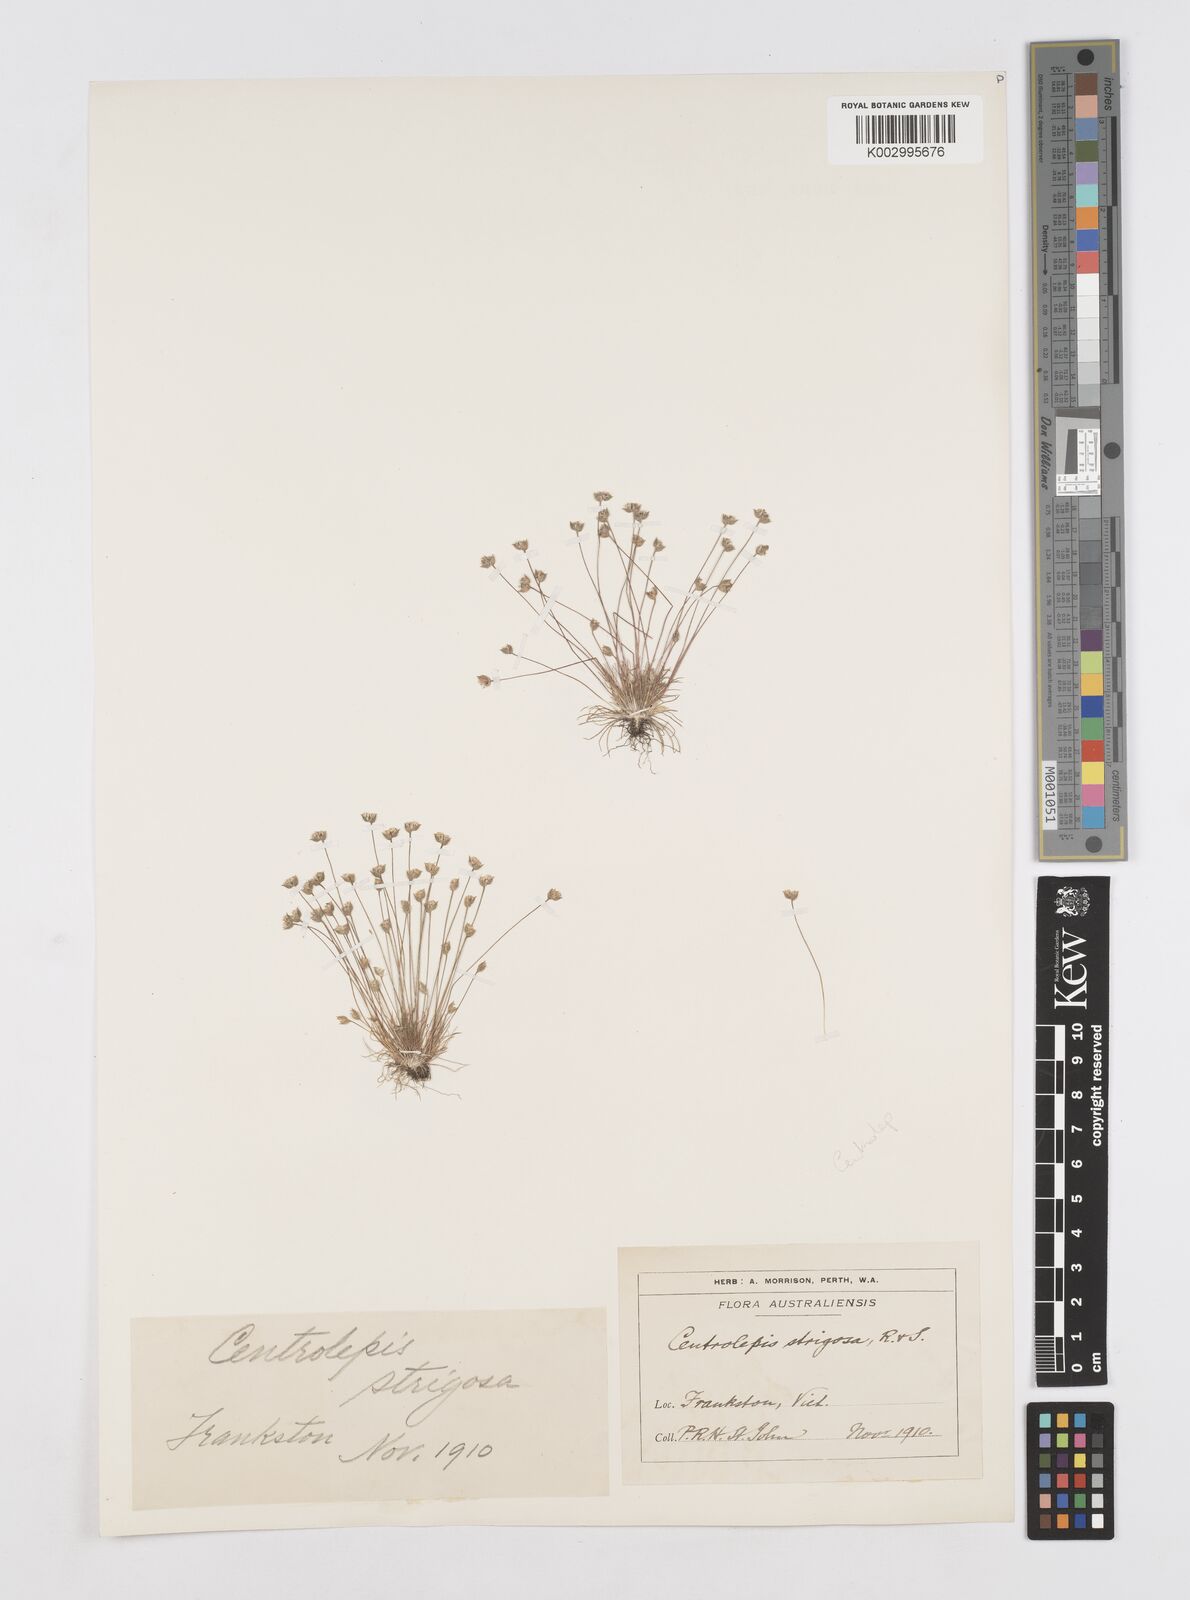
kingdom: Plantae
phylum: Tracheophyta
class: Liliopsida
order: Poales
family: Restionaceae
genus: Centrolepis
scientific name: Centrolepis strigosa
